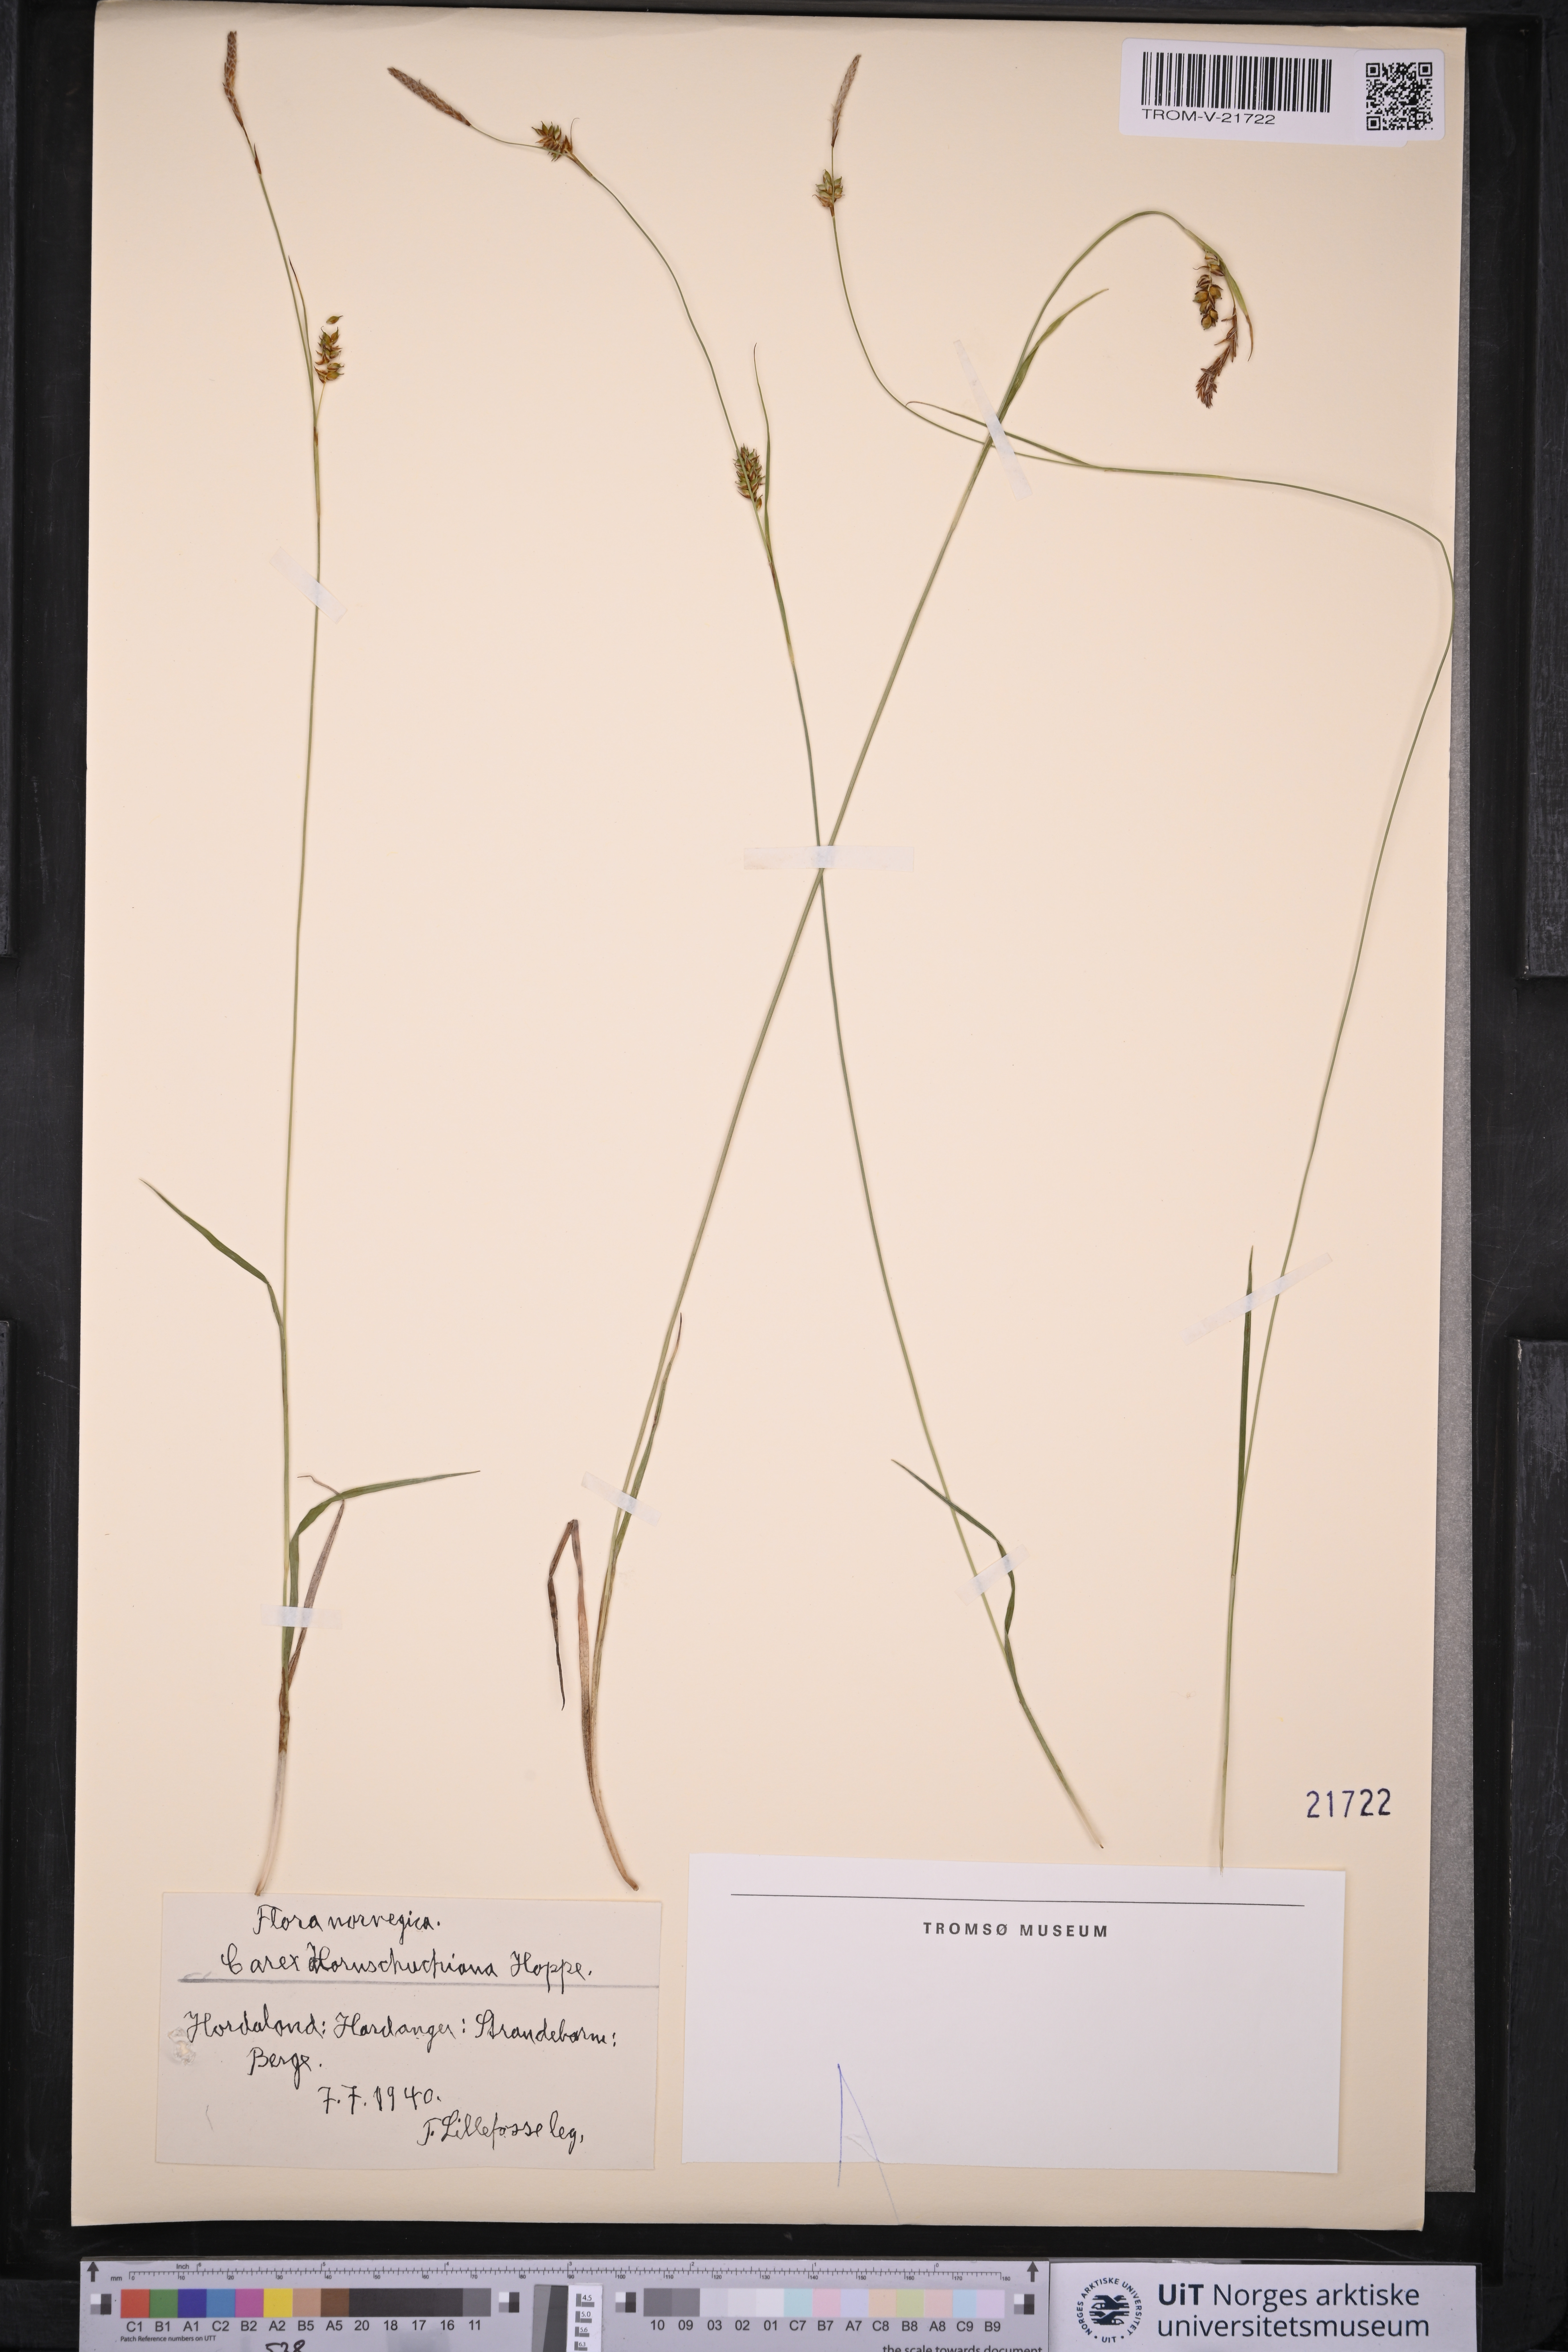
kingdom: Plantae
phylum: Tracheophyta
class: Liliopsida
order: Poales
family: Cyperaceae
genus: Carex
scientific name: Carex hostiana
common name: Tawny sedge
